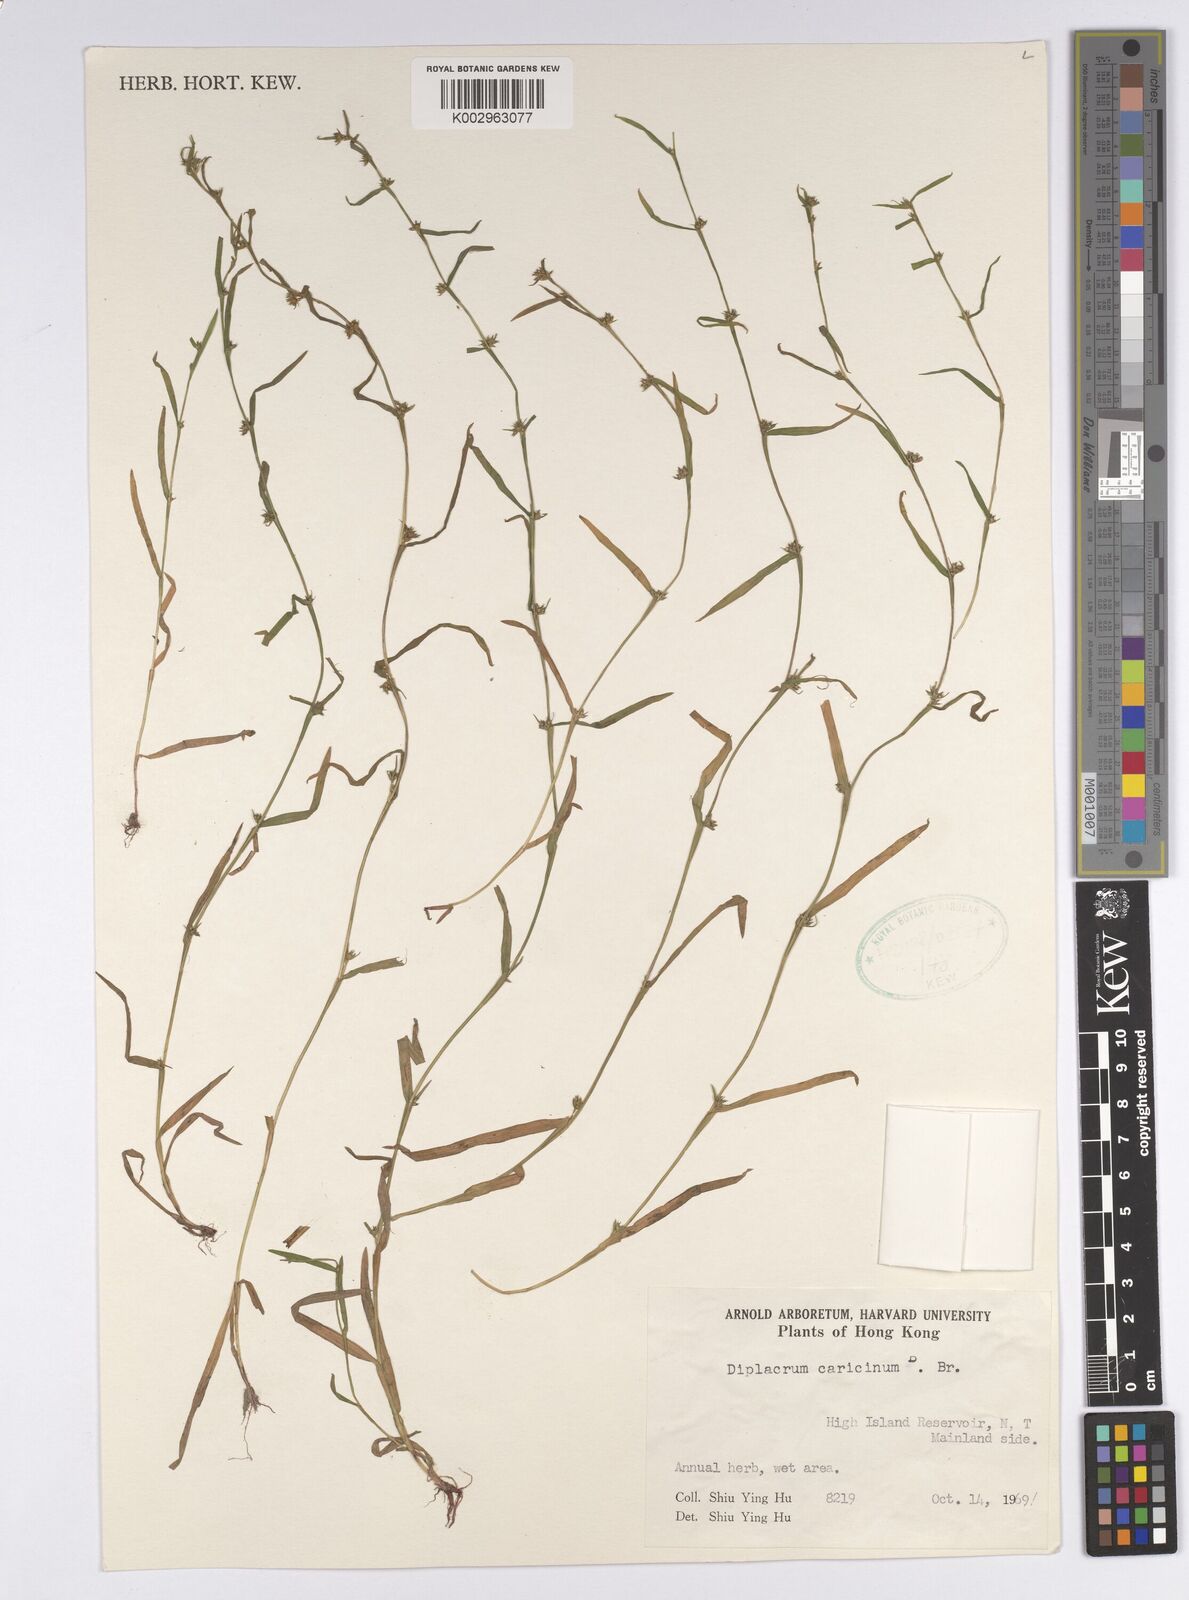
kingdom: Plantae
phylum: Tracheophyta
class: Liliopsida
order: Poales
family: Cyperaceae
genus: Diplacrum
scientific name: Diplacrum caricinum
